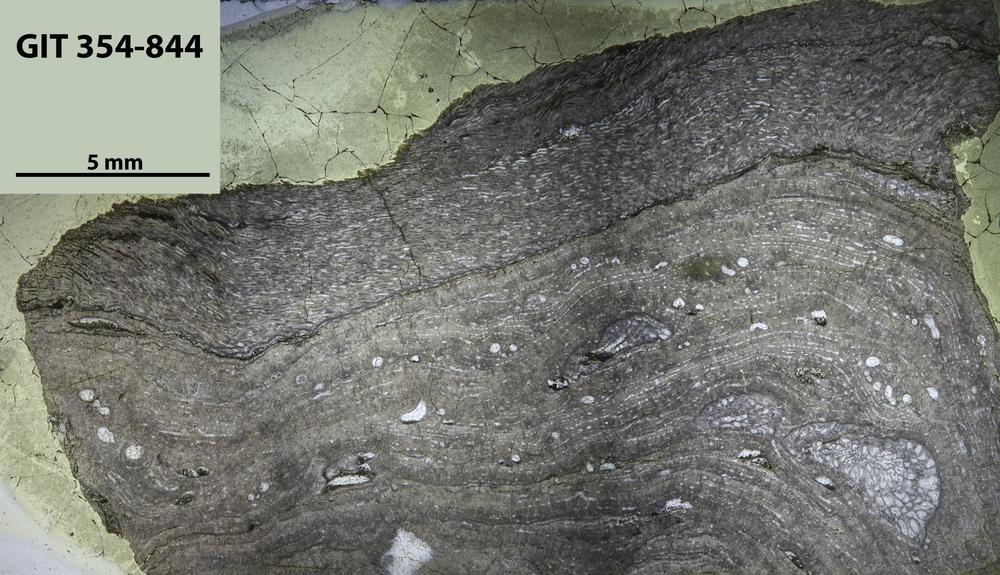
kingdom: Animalia
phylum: Porifera
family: Stromatoporidae
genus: Parallelostroma
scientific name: Parallelostroma
